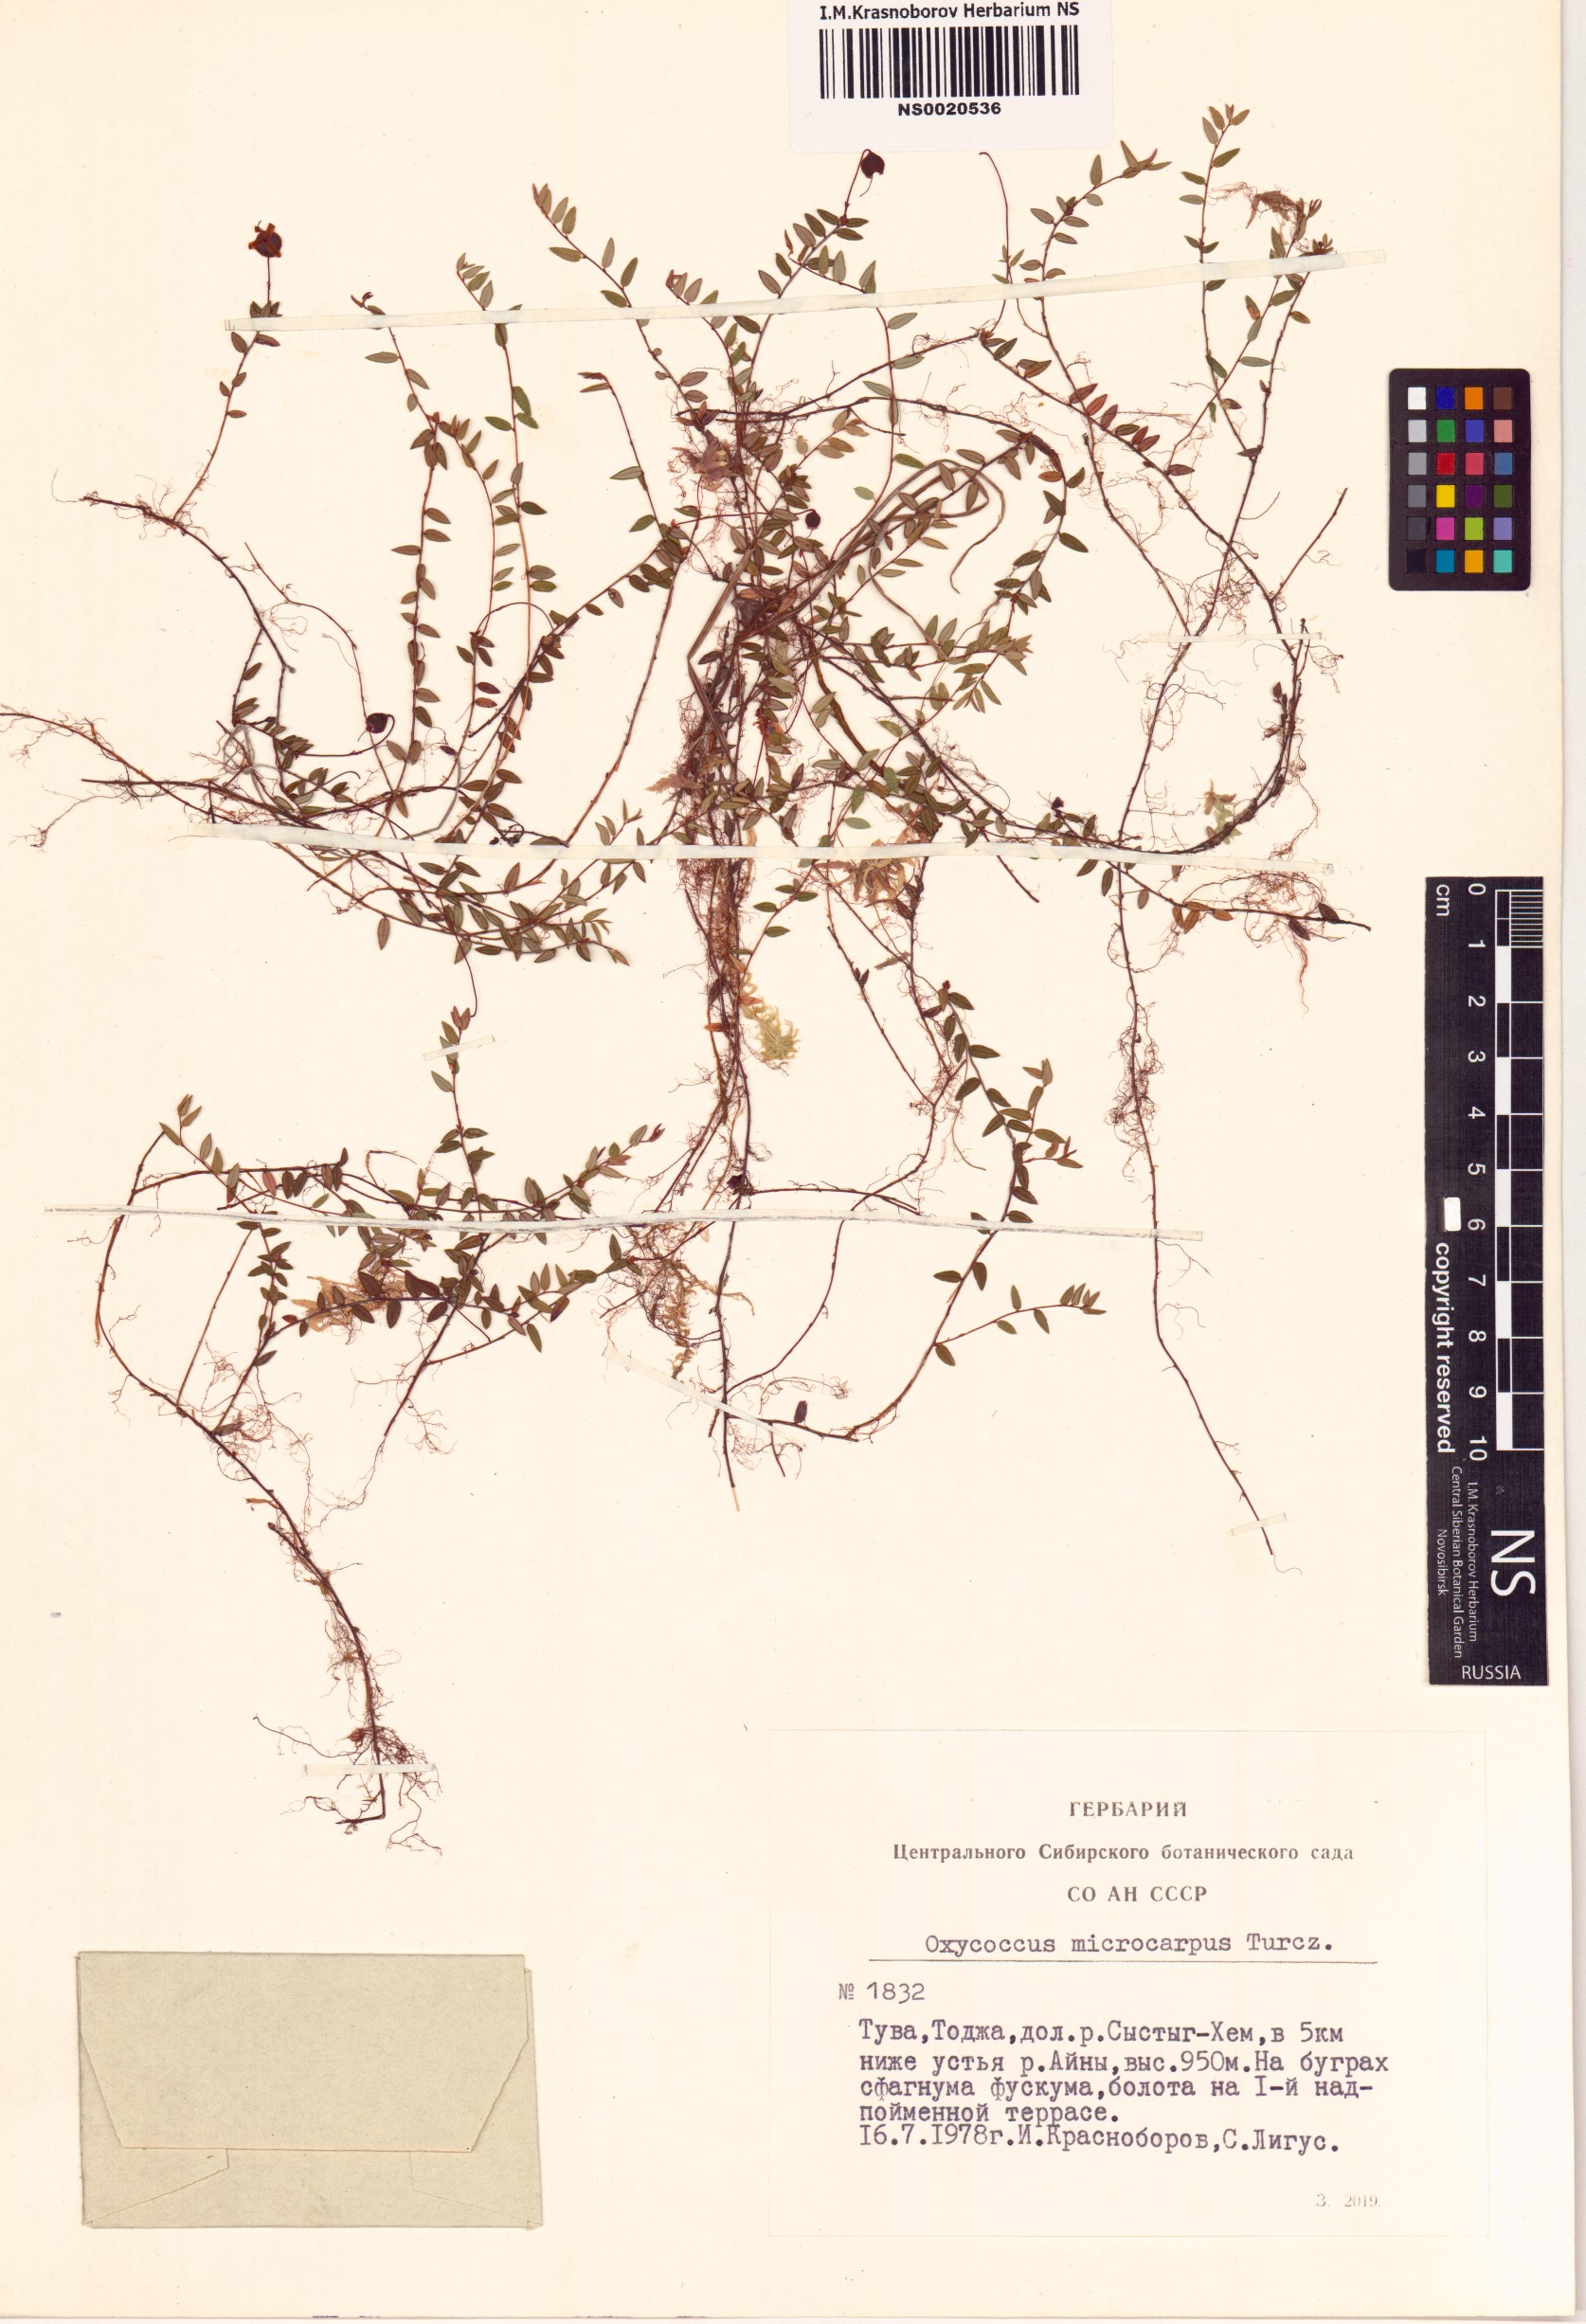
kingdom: Plantae
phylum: Tracheophyta
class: Magnoliopsida
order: Ericales
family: Ericaceae
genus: Vaccinium
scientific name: Vaccinium microcarpum
